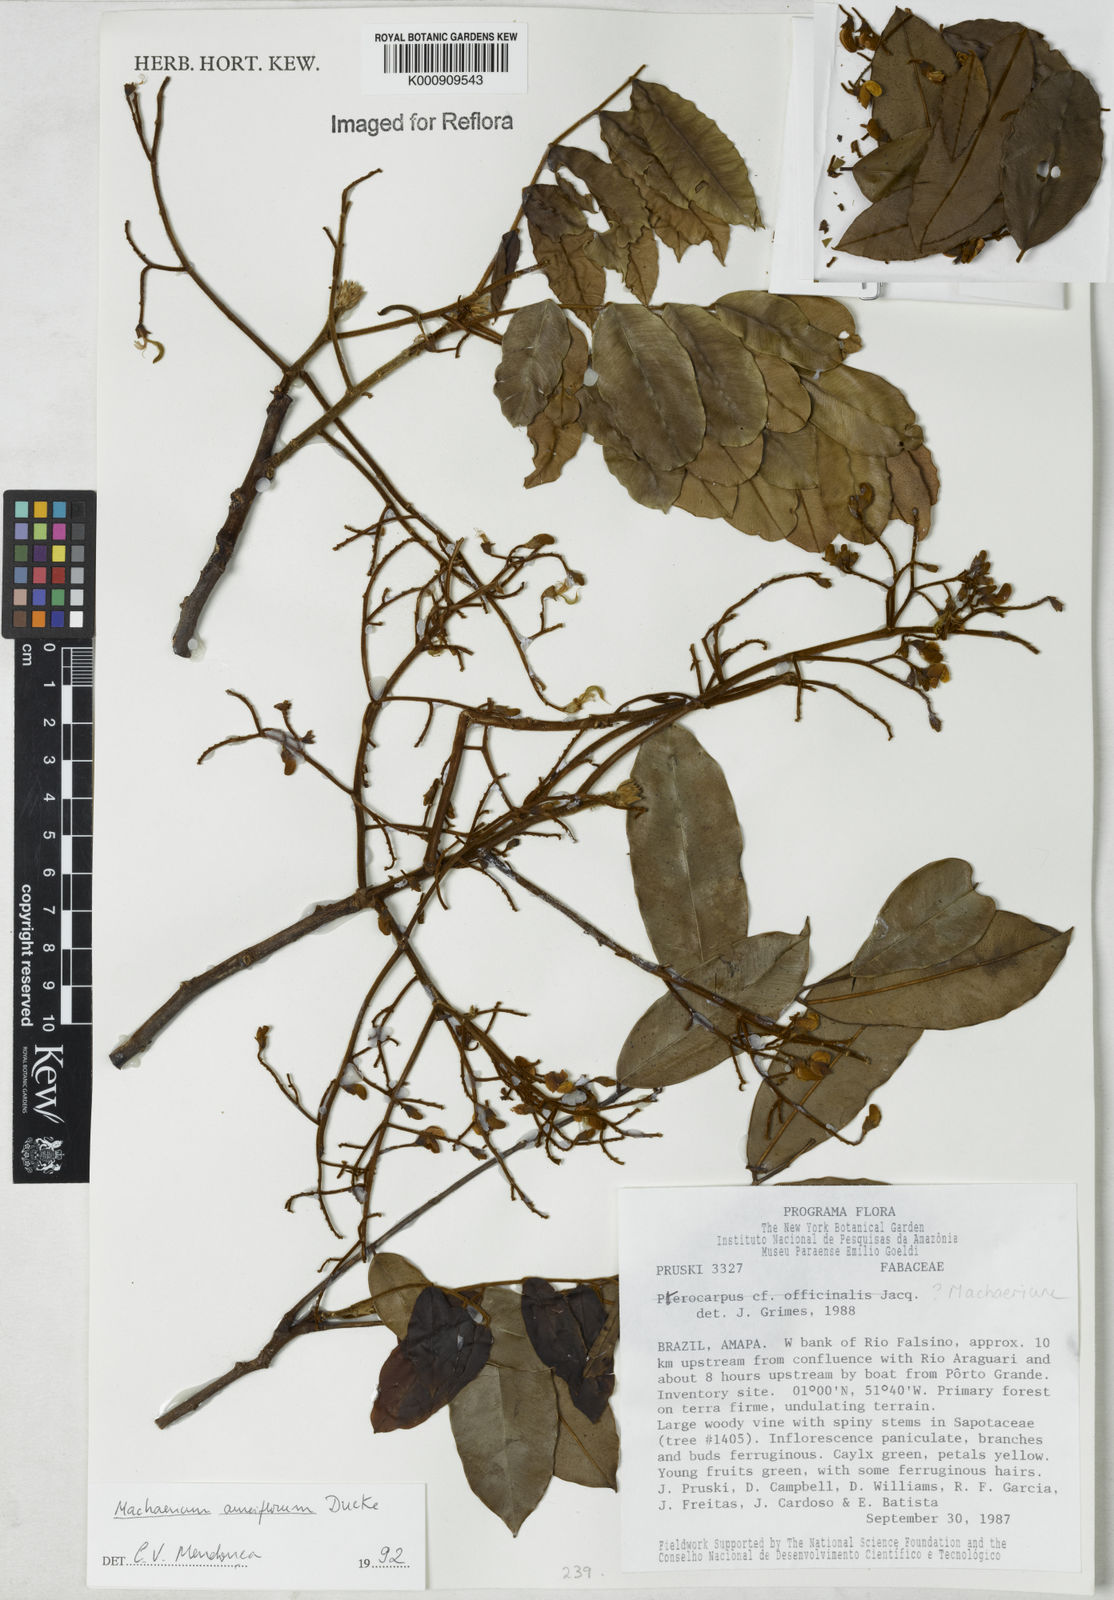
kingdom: Plantae
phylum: Tracheophyta
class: Magnoliopsida
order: Fabales
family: Fabaceae
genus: Machaerium
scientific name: Machaerium aureiflorum
